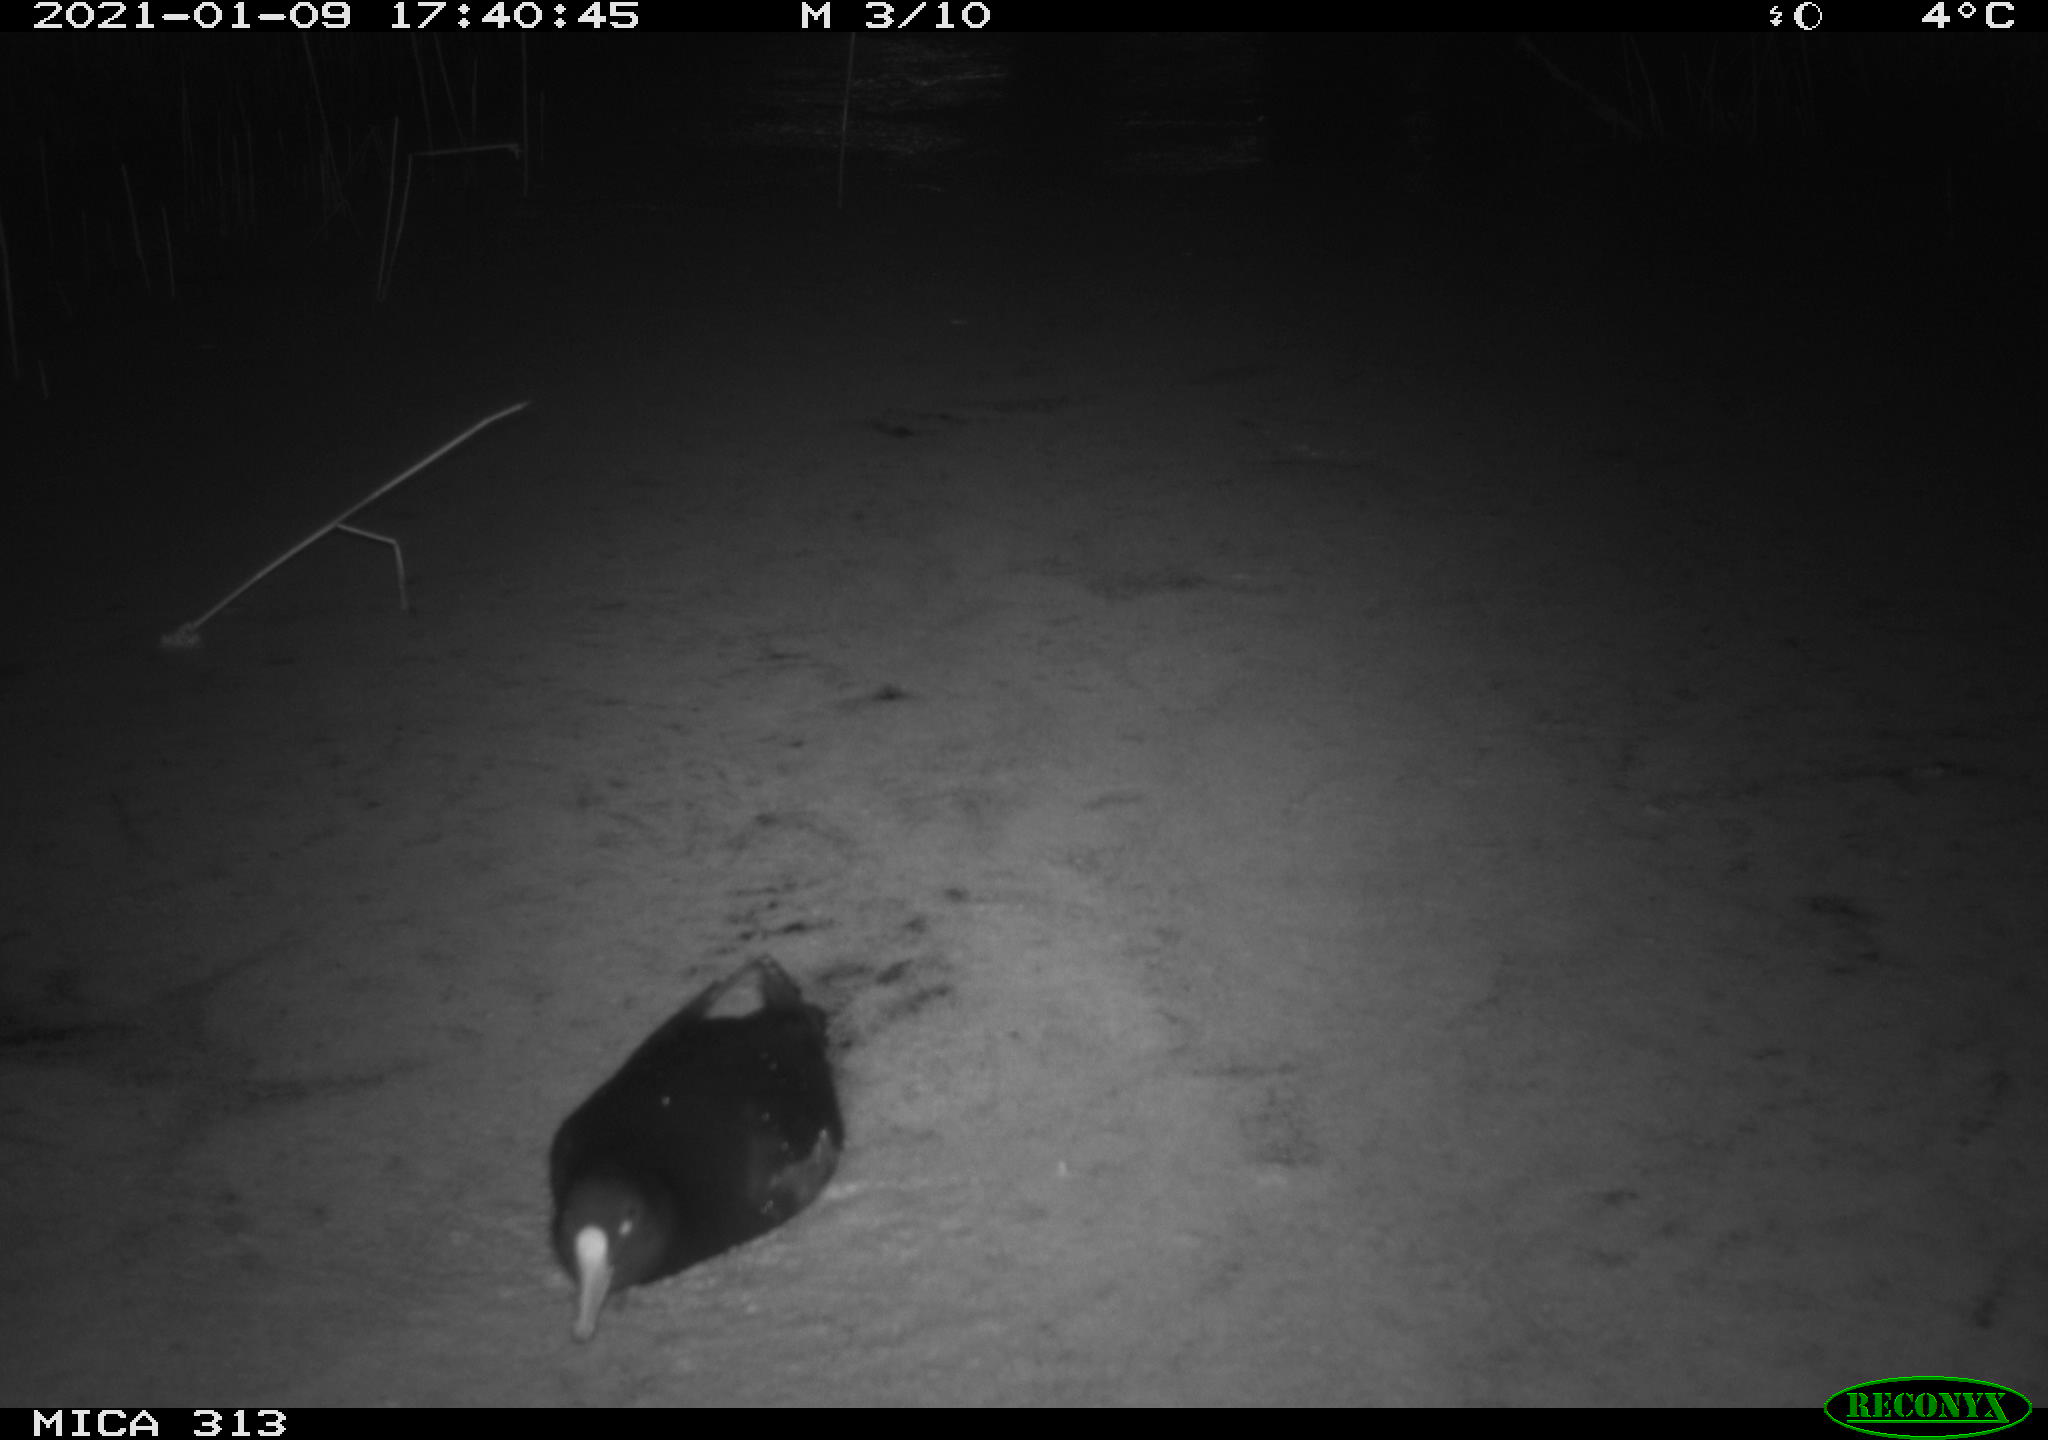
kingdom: Animalia
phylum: Chordata
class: Aves
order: Gruiformes
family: Rallidae
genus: Gallinula
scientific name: Gallinula chloropus
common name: Common moorhen
